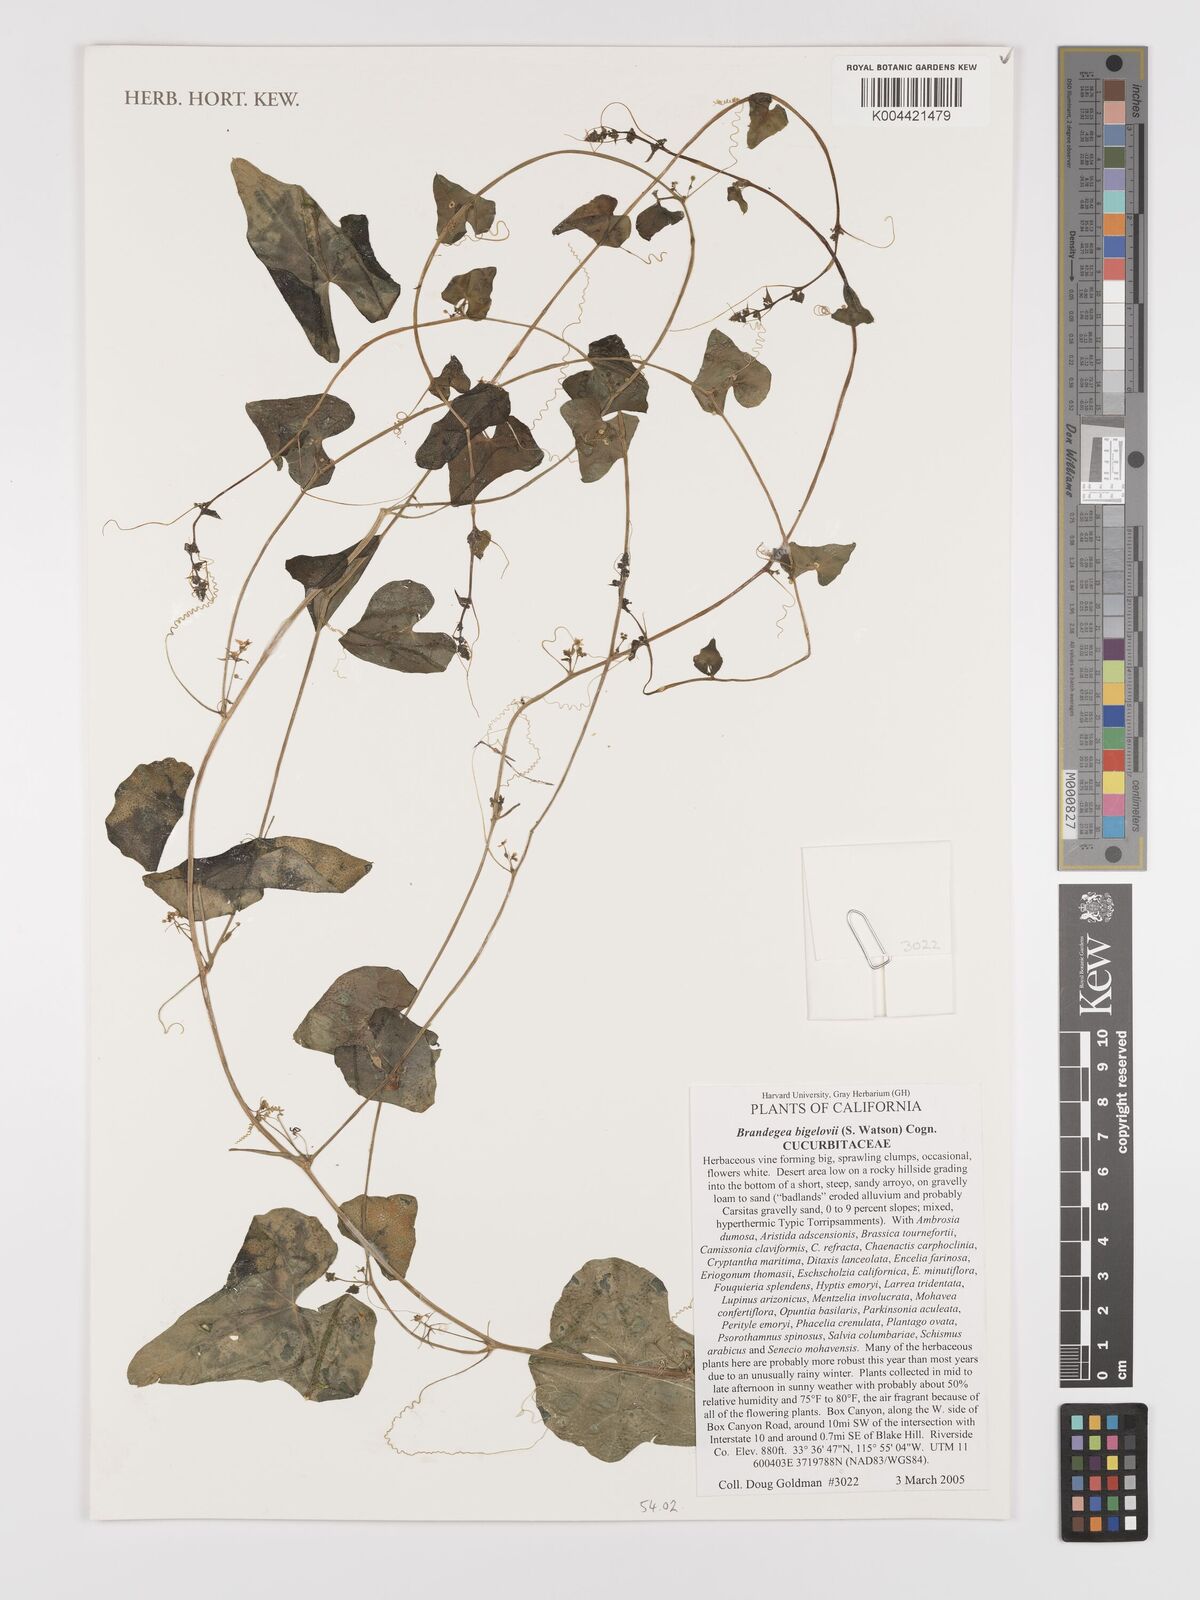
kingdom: Plantae
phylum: Tracheophyta
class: Magnoliopsida
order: Cucurbitales
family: Cucurbitaceae
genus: Echinopepon
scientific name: Echinopepon bigelovii
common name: Desert starvine
